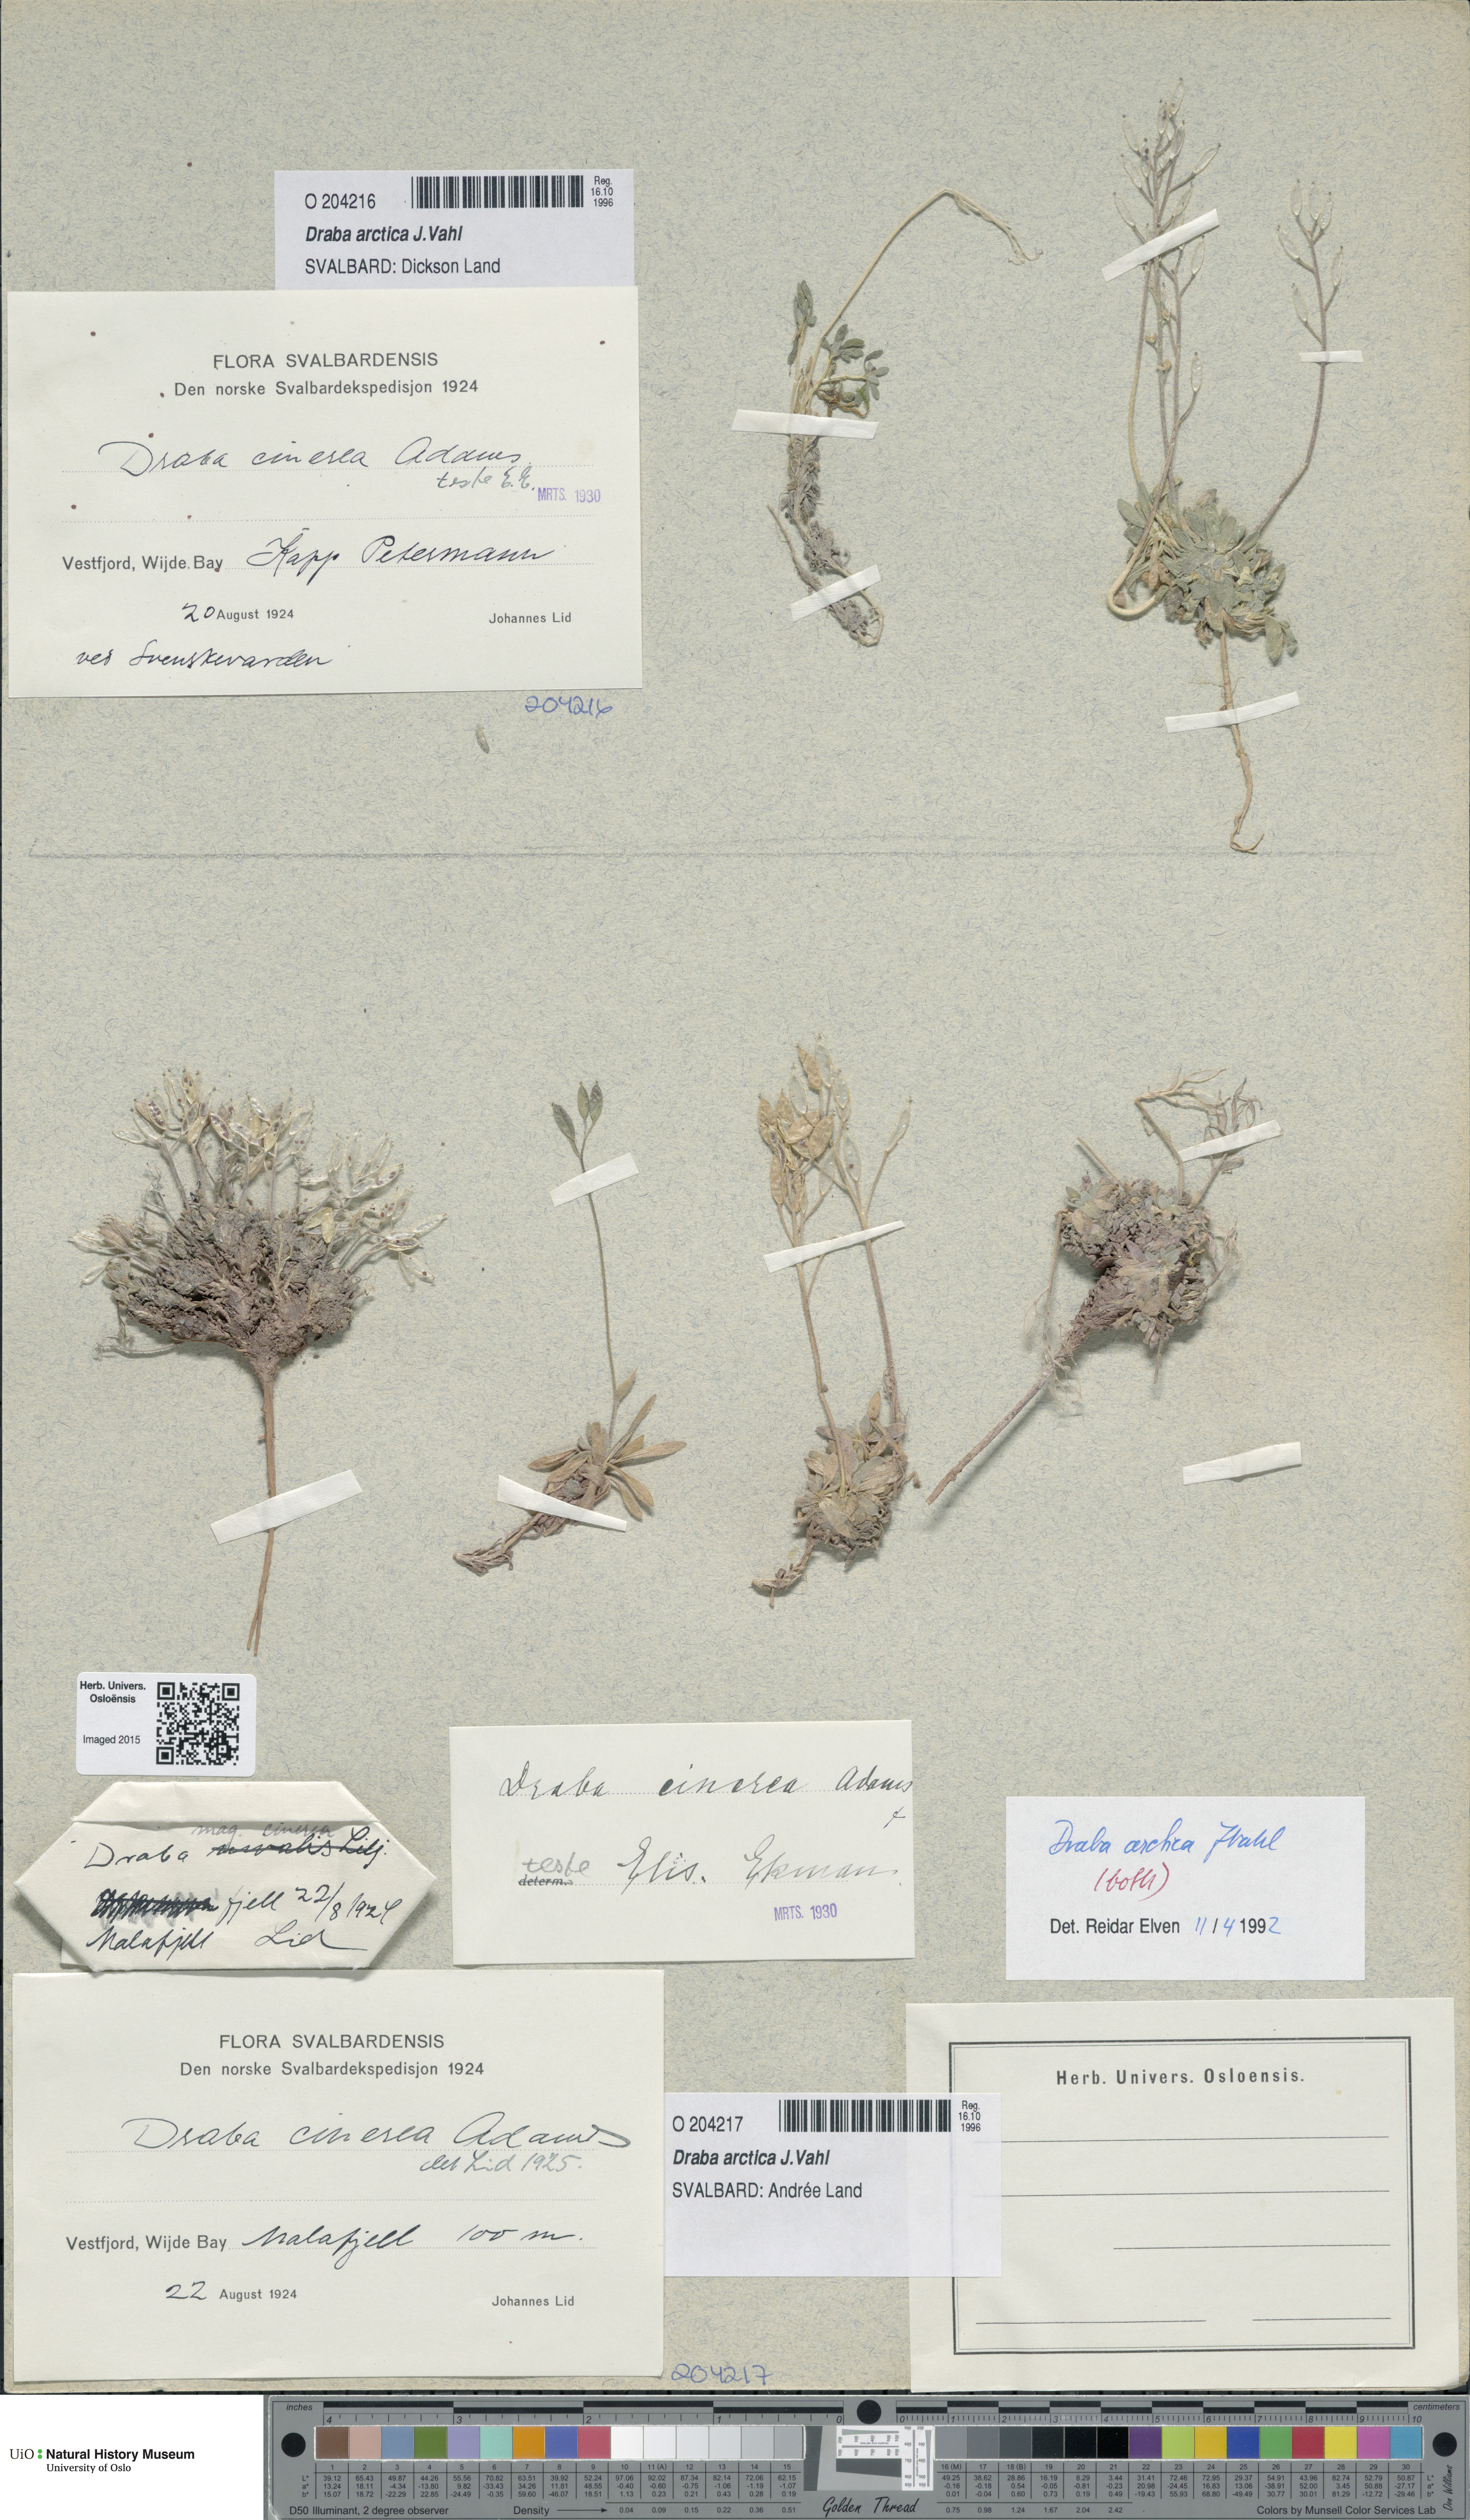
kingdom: Plantae
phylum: Tracheophyta
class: Magnoliopsida
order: Brassicales
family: Brassicaceae
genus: Draba
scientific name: Draba arctica
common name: Arctic draba
